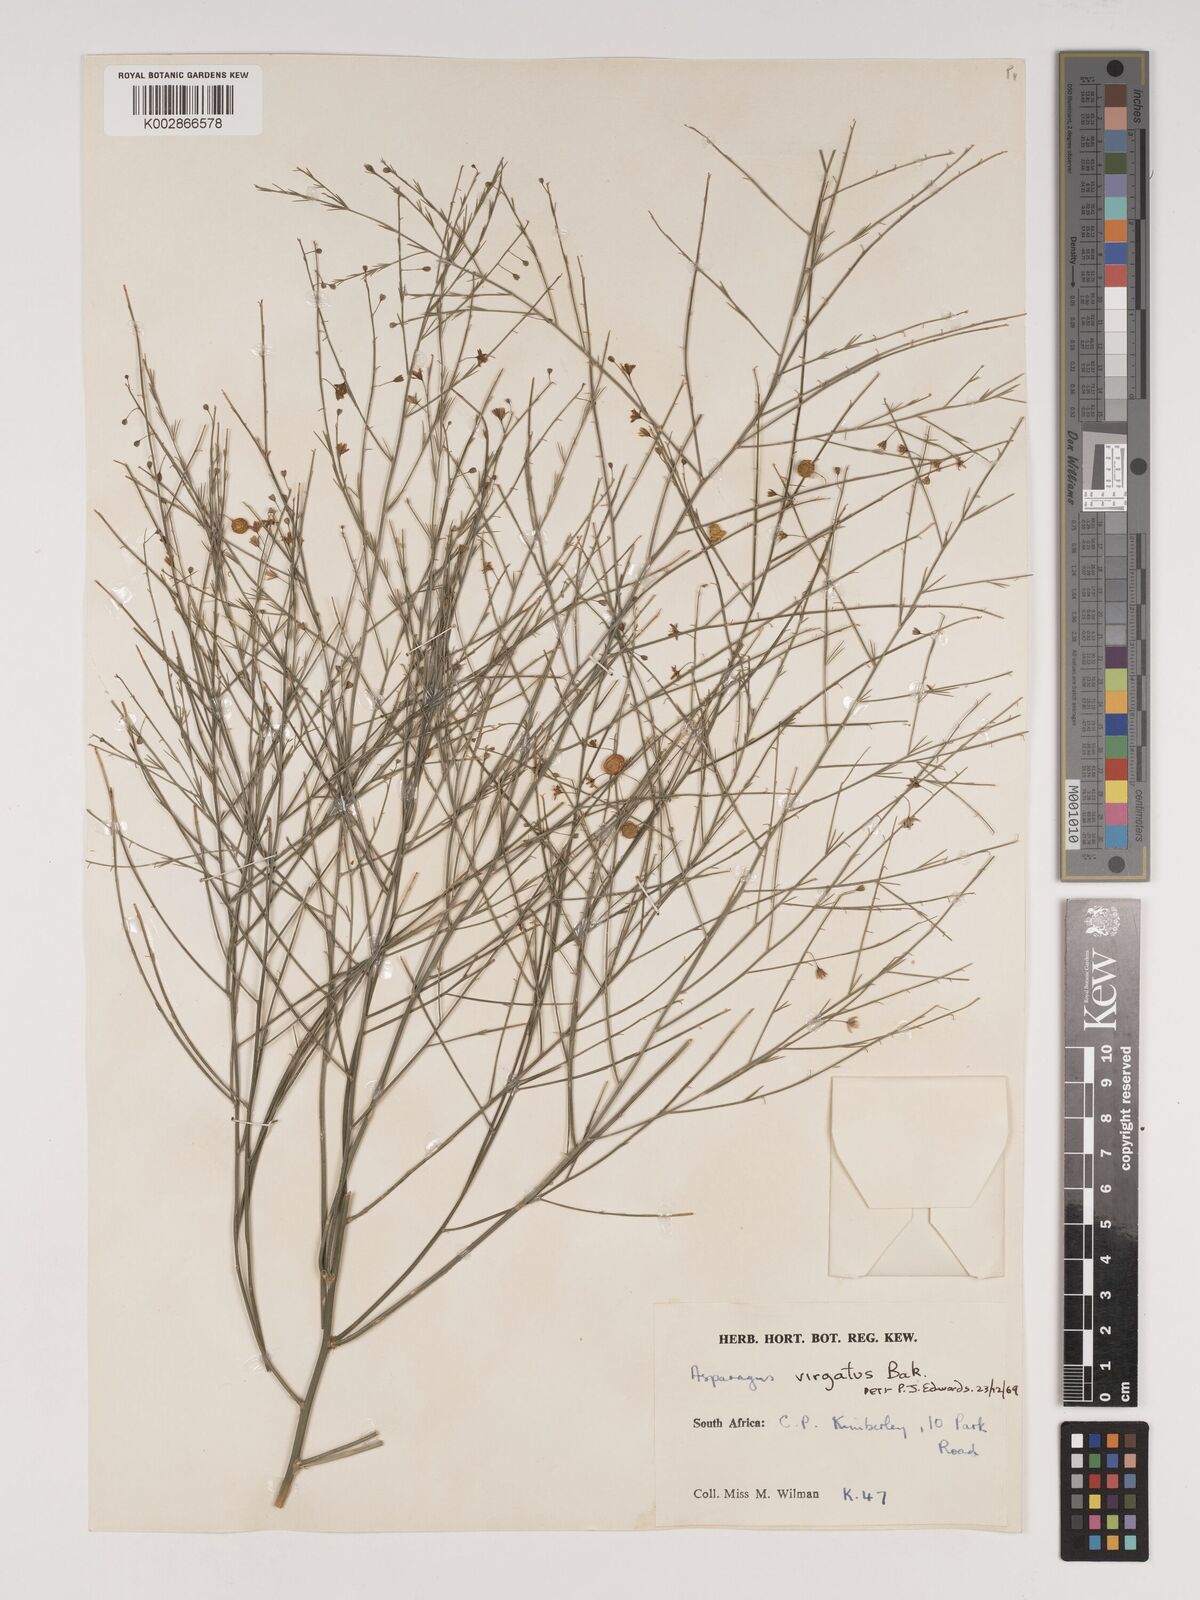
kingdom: Plantae
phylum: Tracheophyta
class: Liliopsida
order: Asparagales
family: Asparagaceae
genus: Asparagus
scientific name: Asparagus virgatus
